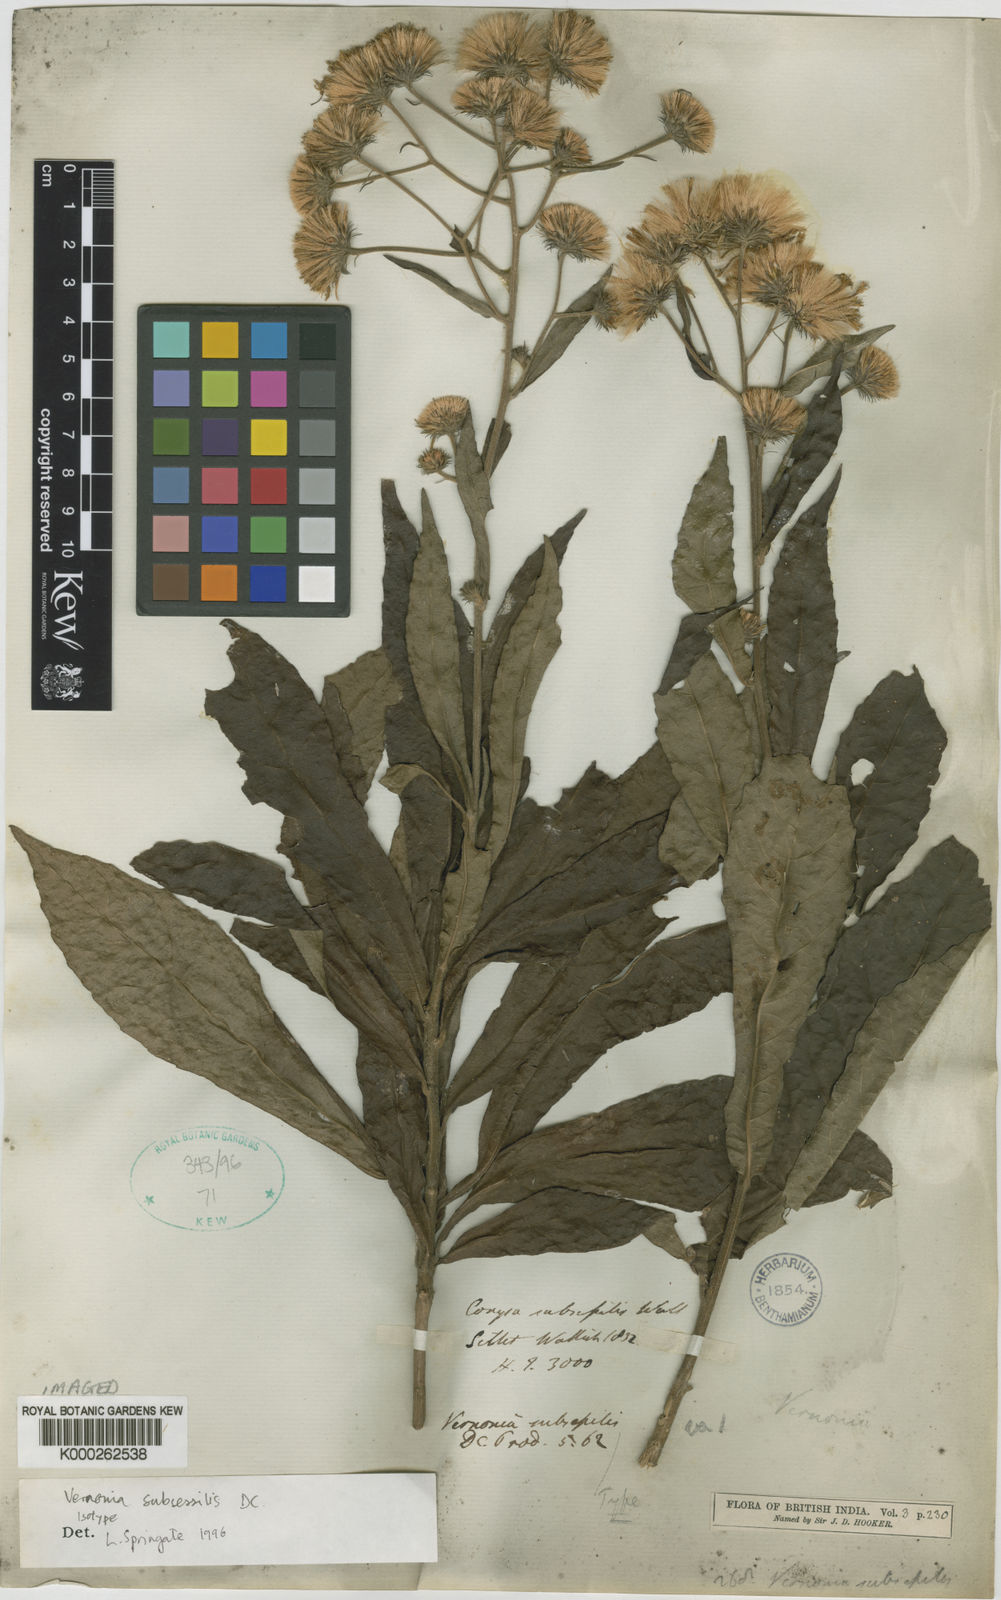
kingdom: Plantae
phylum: Tracheophyta
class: Magnoliopsida
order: Asterales
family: Asteraceae
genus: Khasianthus
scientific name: Khasianthus subsessilis
